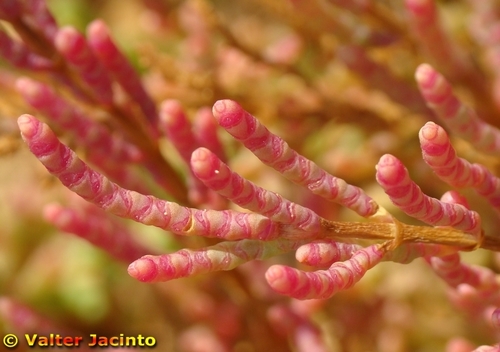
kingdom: Plantae
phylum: Tracheophyta
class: Magnoliopsida
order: Caryophyllales
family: Amaranthaceae
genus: Salicornia
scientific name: Salicornia europaea
